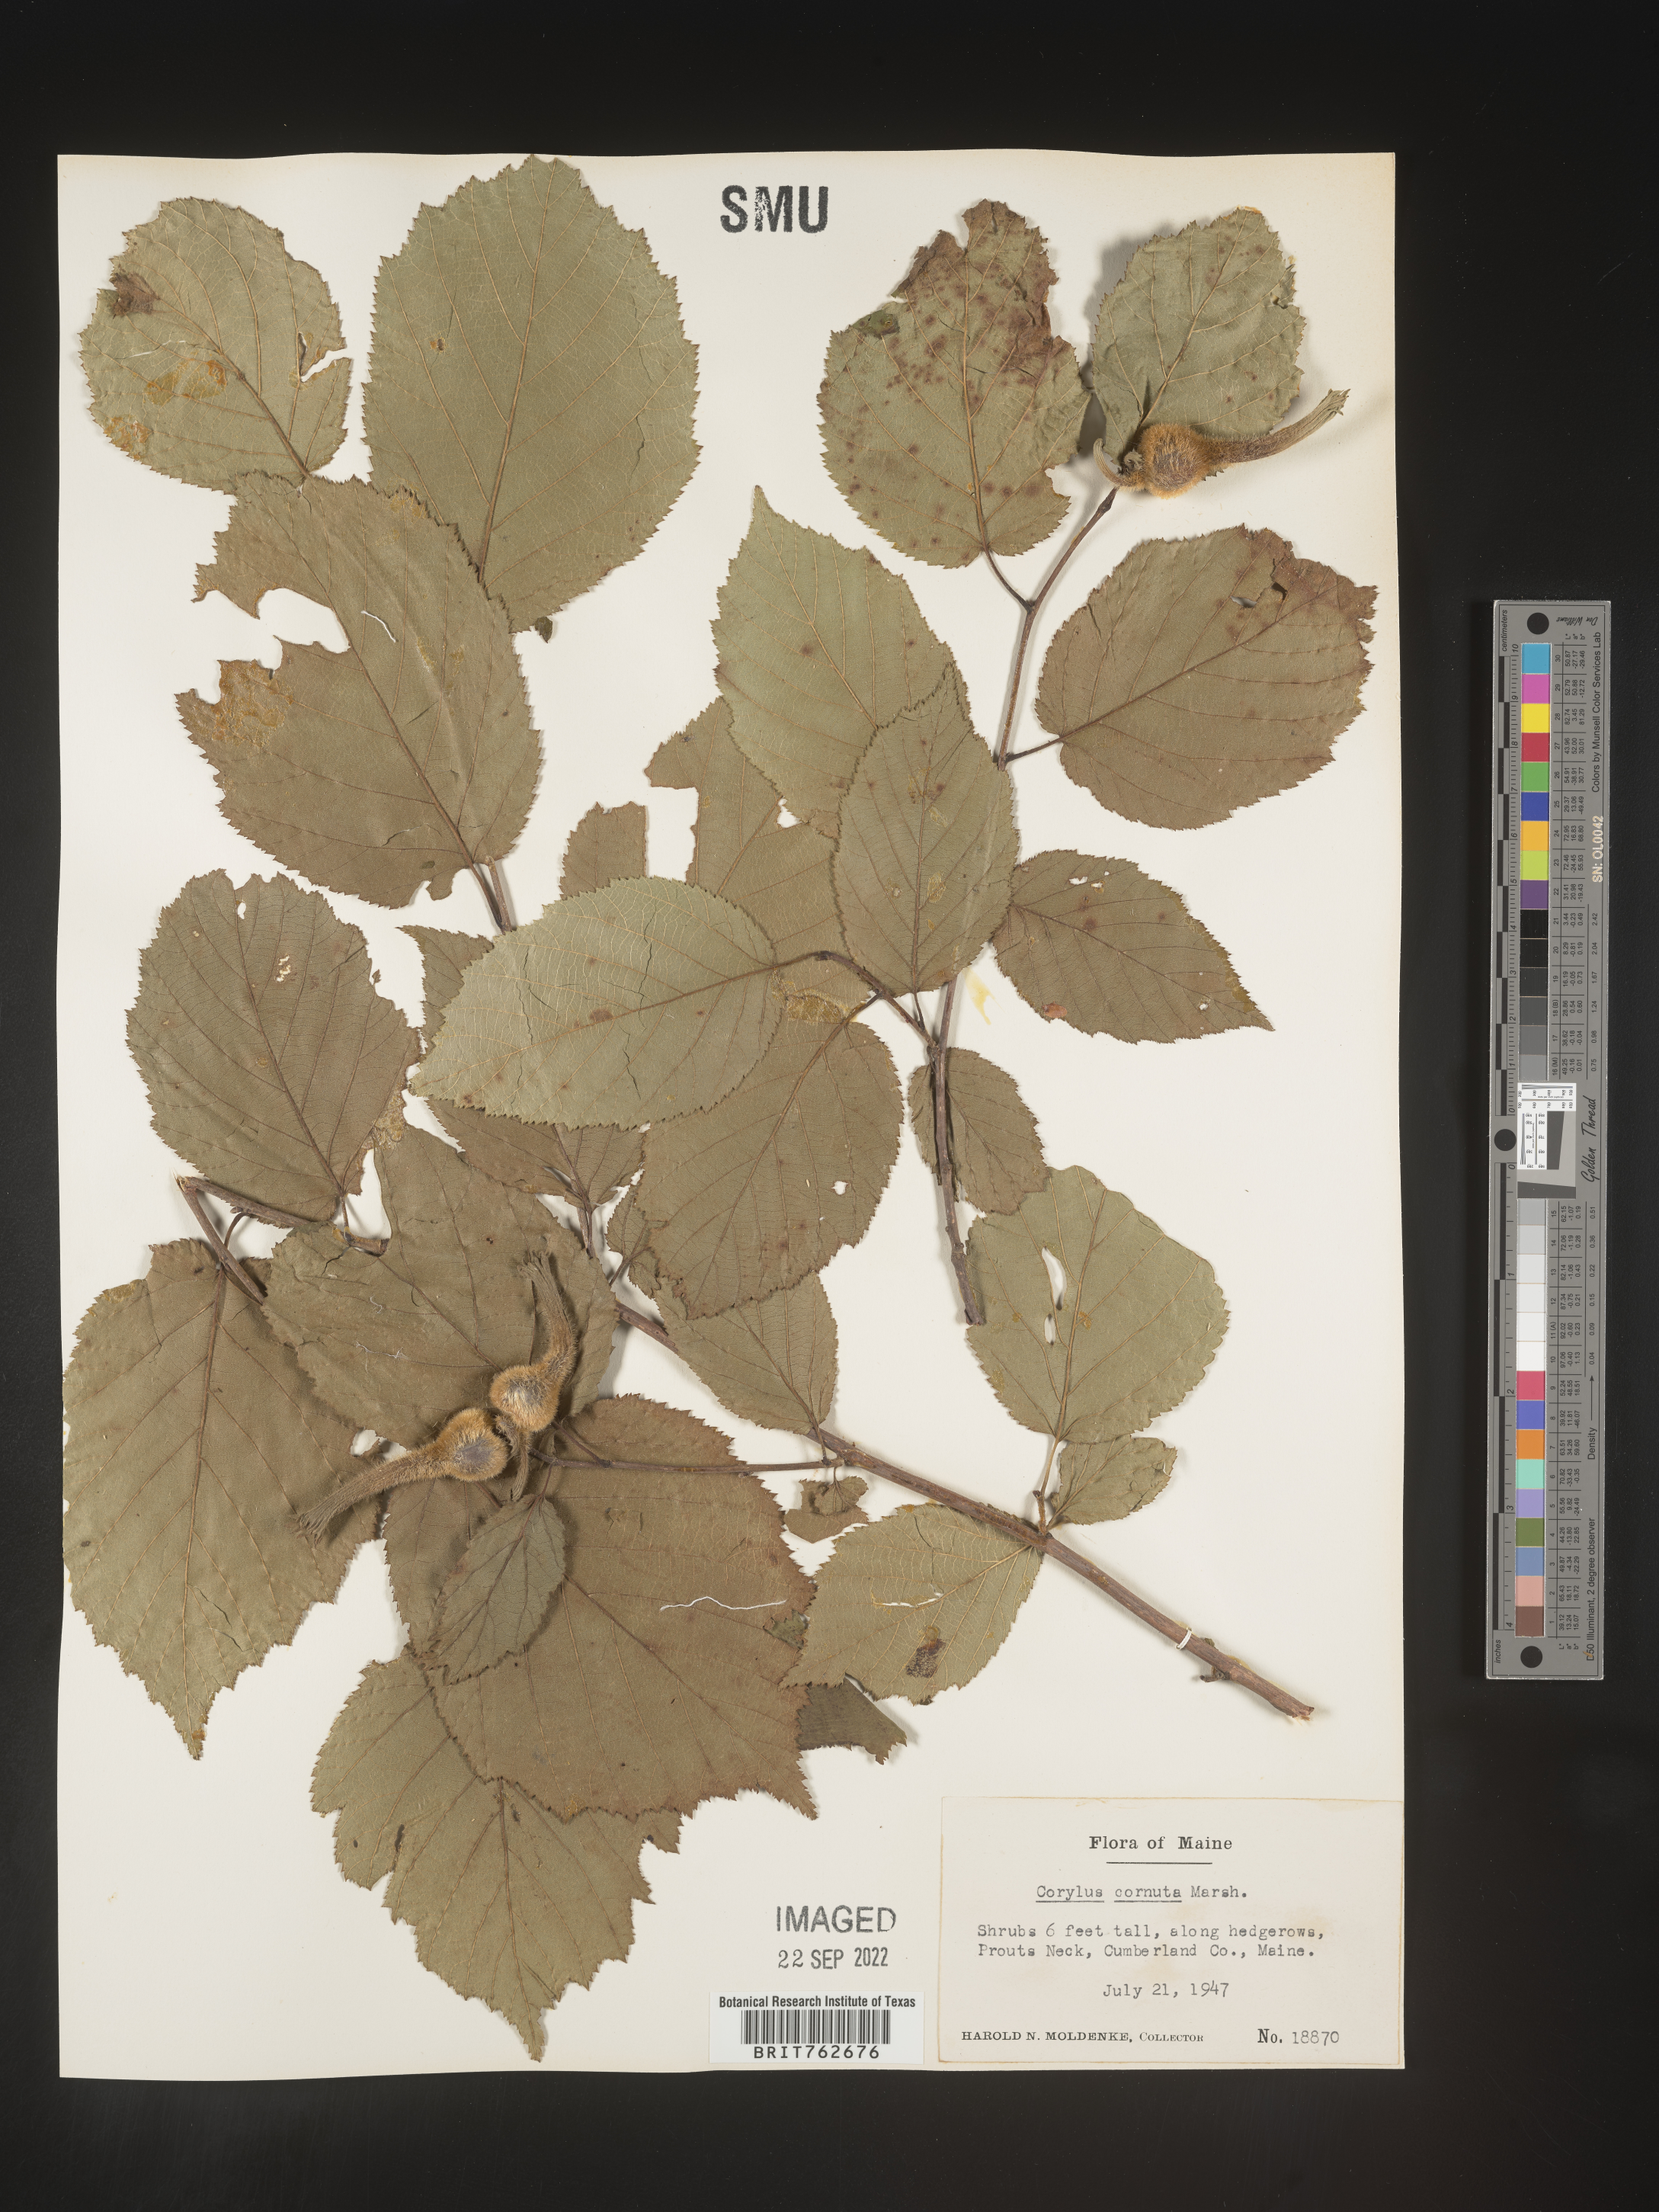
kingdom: Plantae
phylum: Tracheophyta
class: Magnoliopsida
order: Fagales
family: Betulaceae
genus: Corylus
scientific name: Corylus cornuta
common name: Beaked hazel
